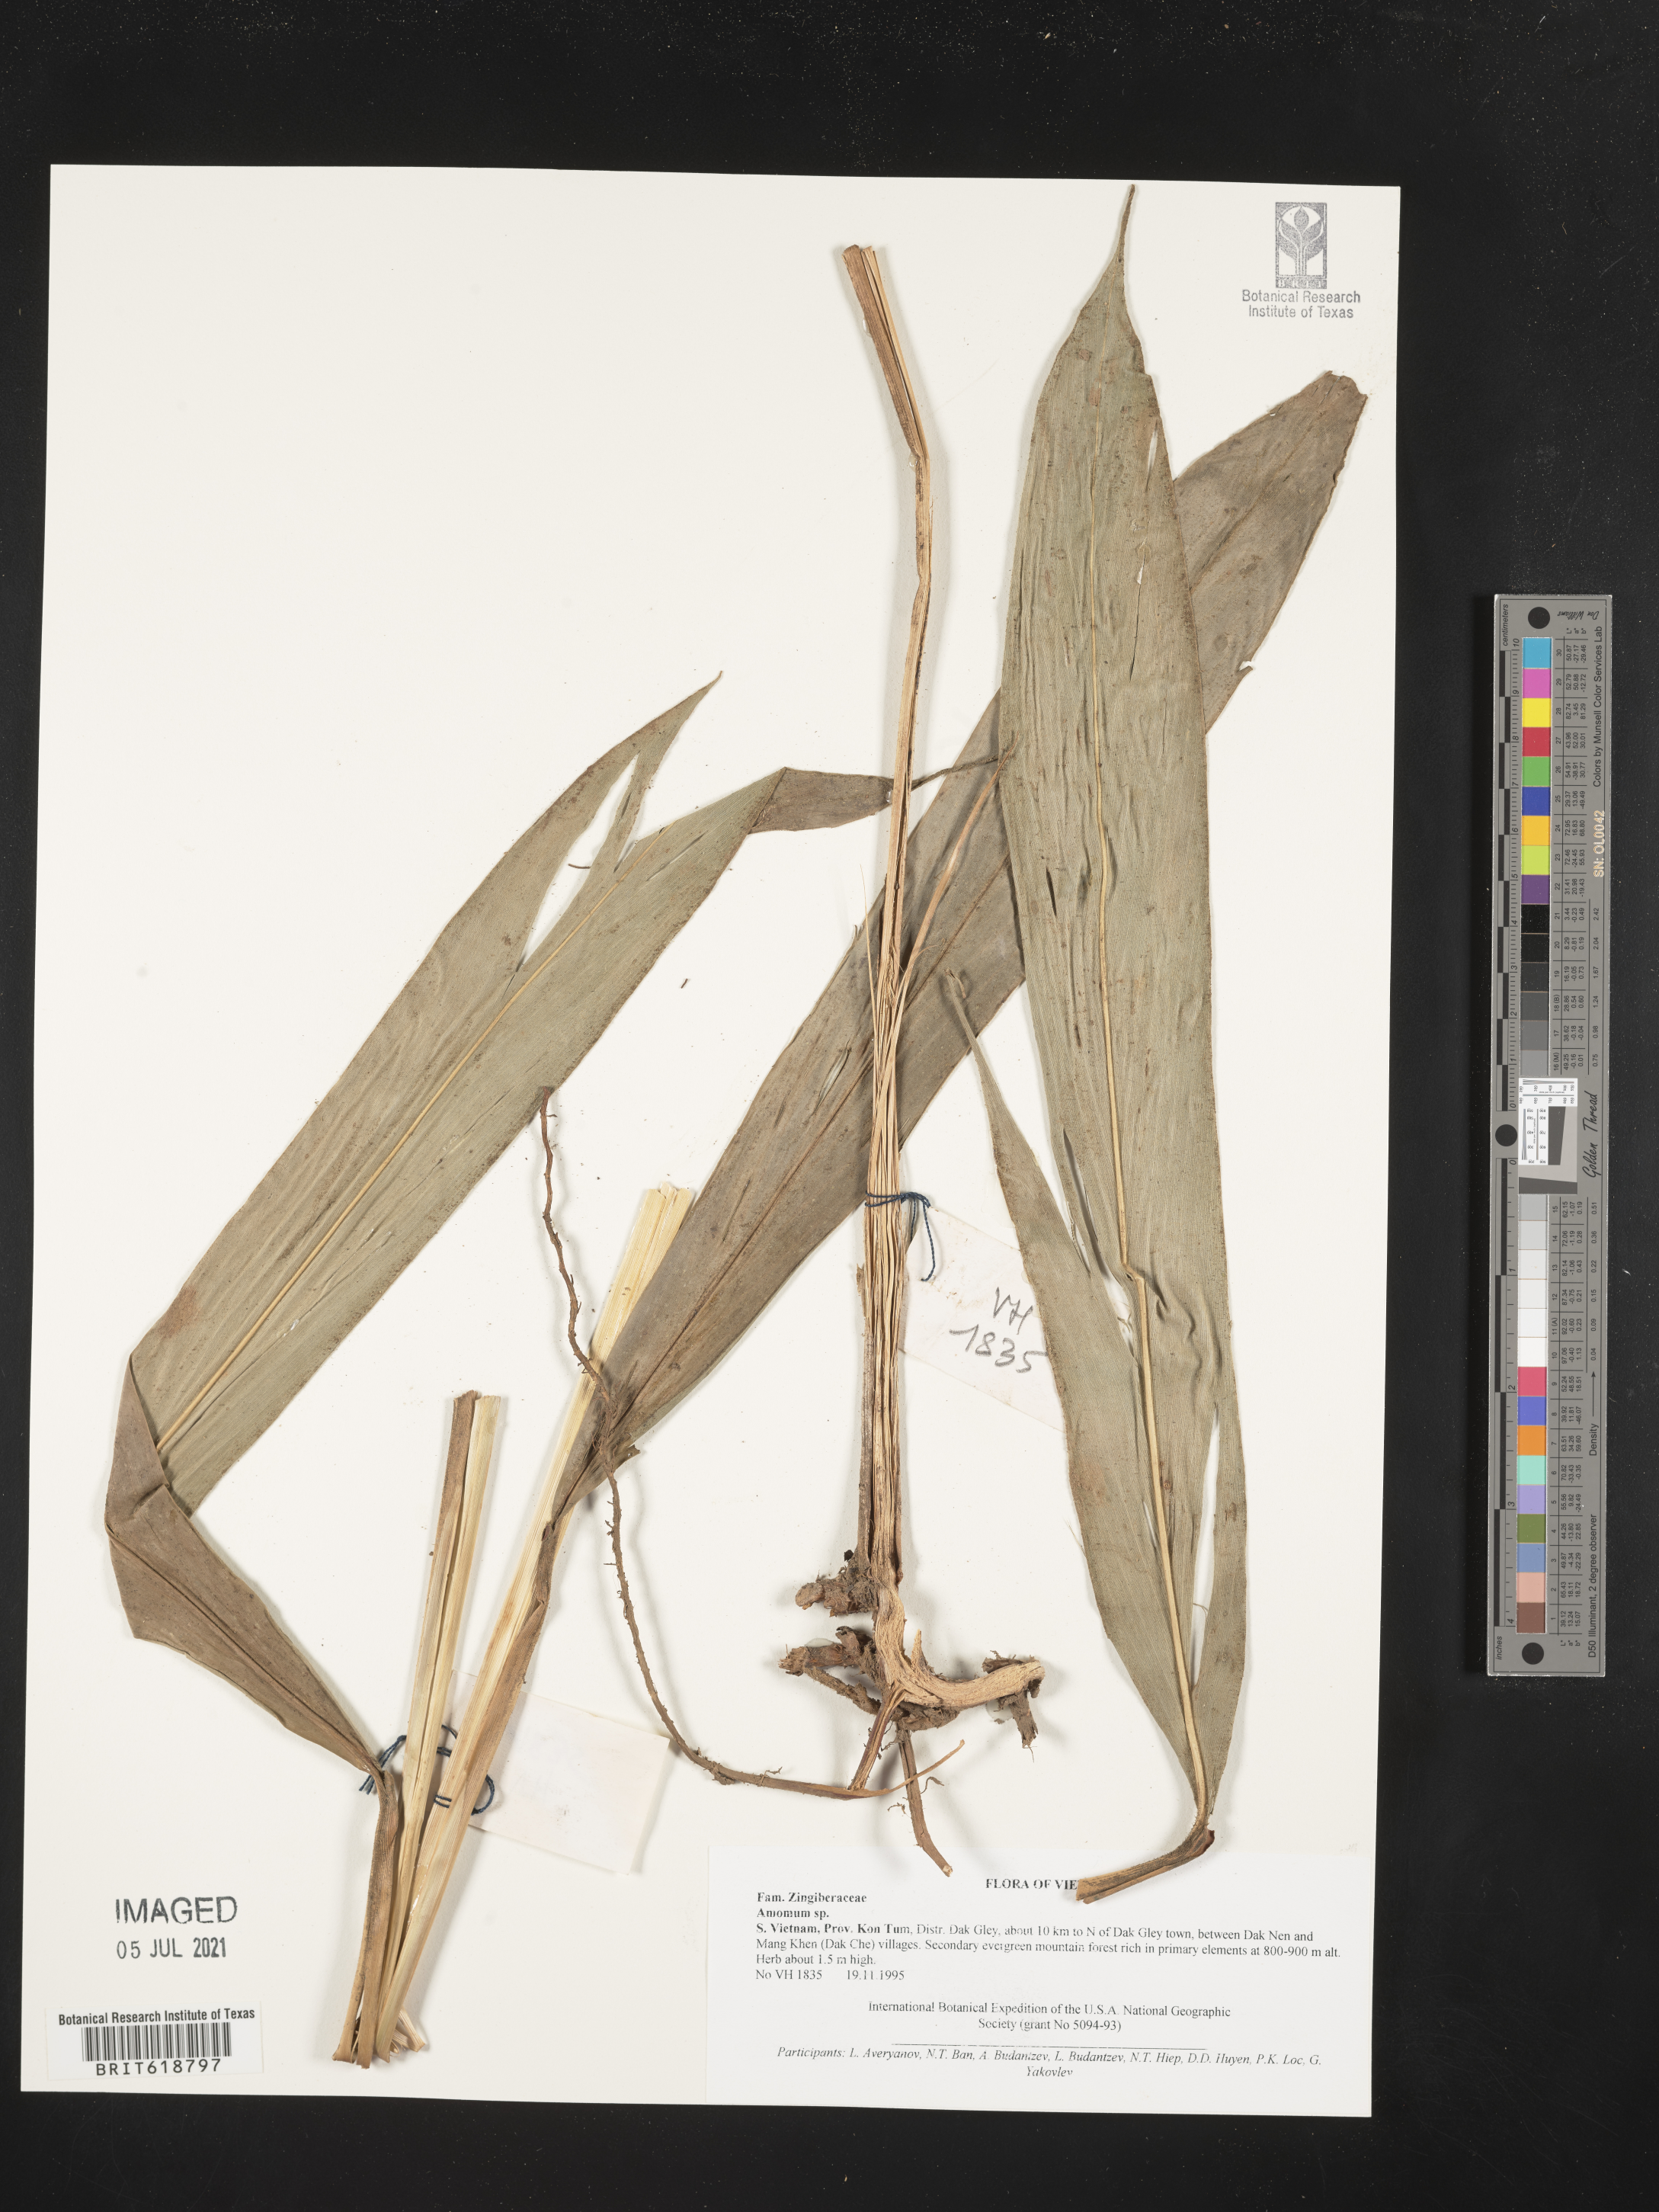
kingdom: Plantae
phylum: Tracheophyta
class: Liliopsida
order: Zingiberales
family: Zingiberaceae
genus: Amomum
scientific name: Amomum
